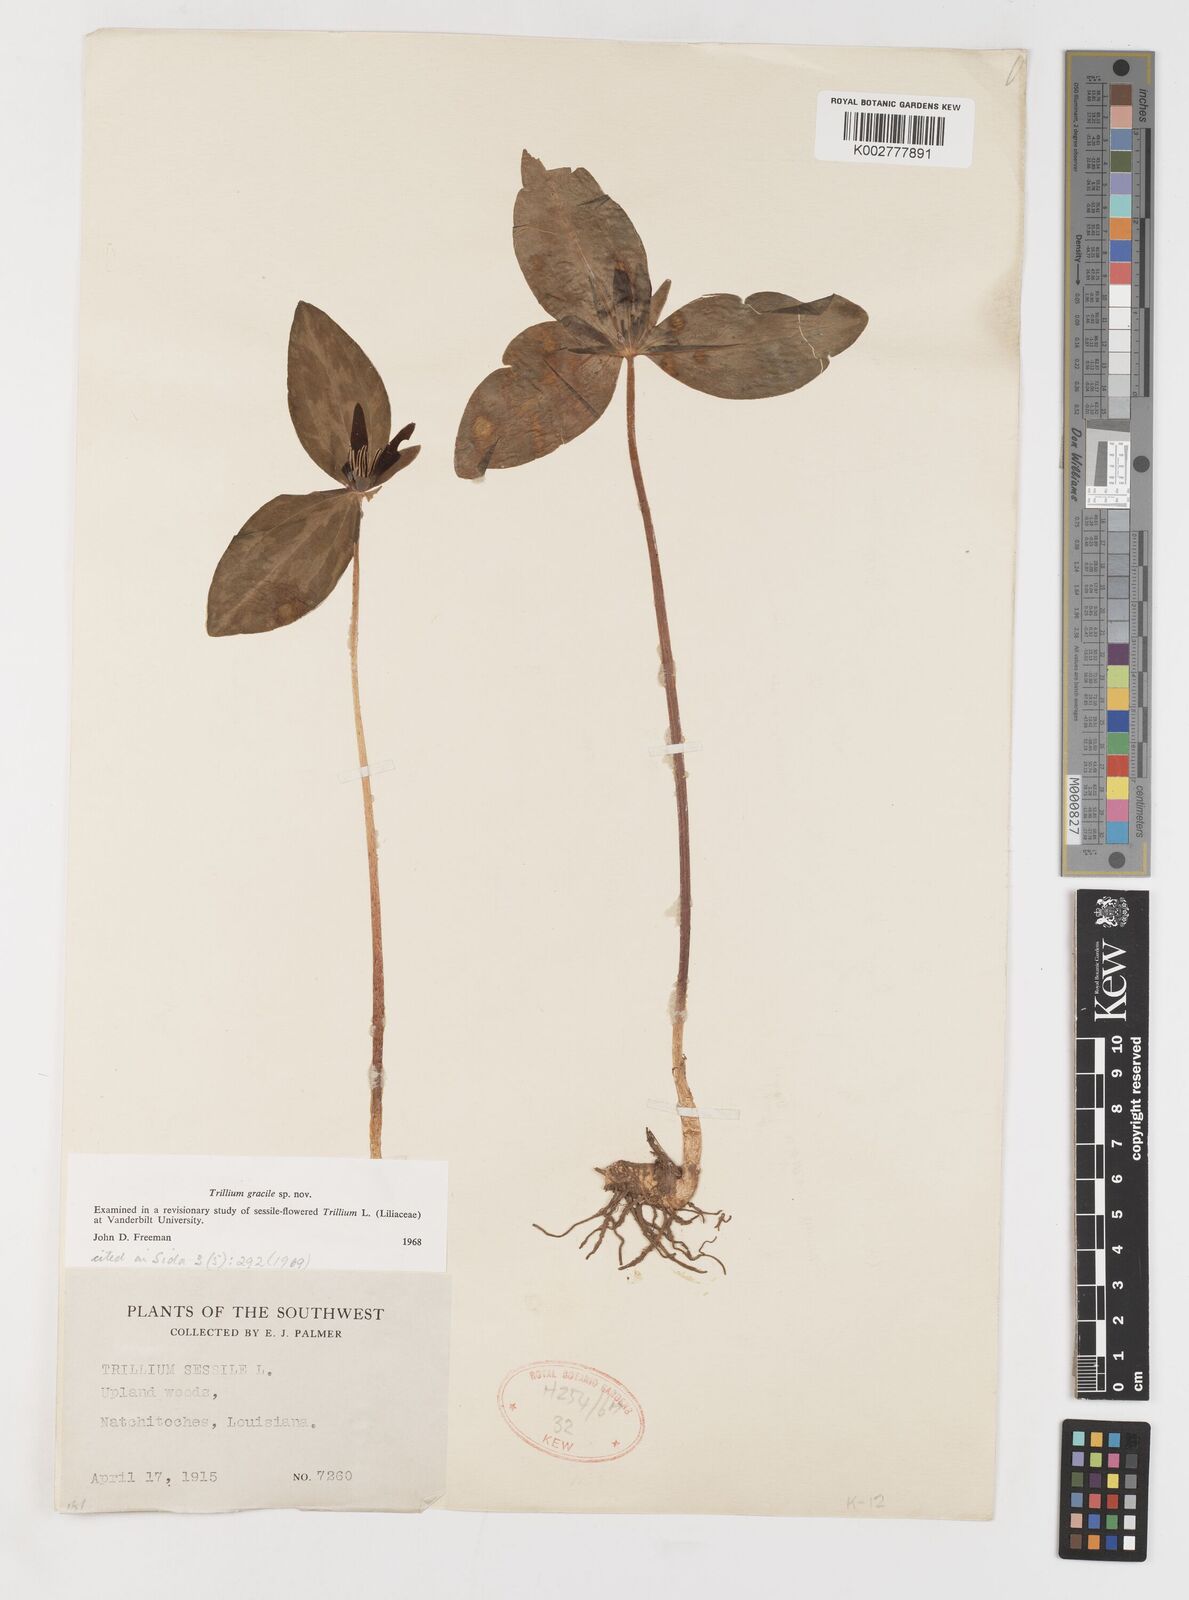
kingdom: Plantae
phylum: Tracheophyta
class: Liliopsida
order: Liliales
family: Melanthiaceae
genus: Trillium
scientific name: Trillium gracile
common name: Graceful trillium
